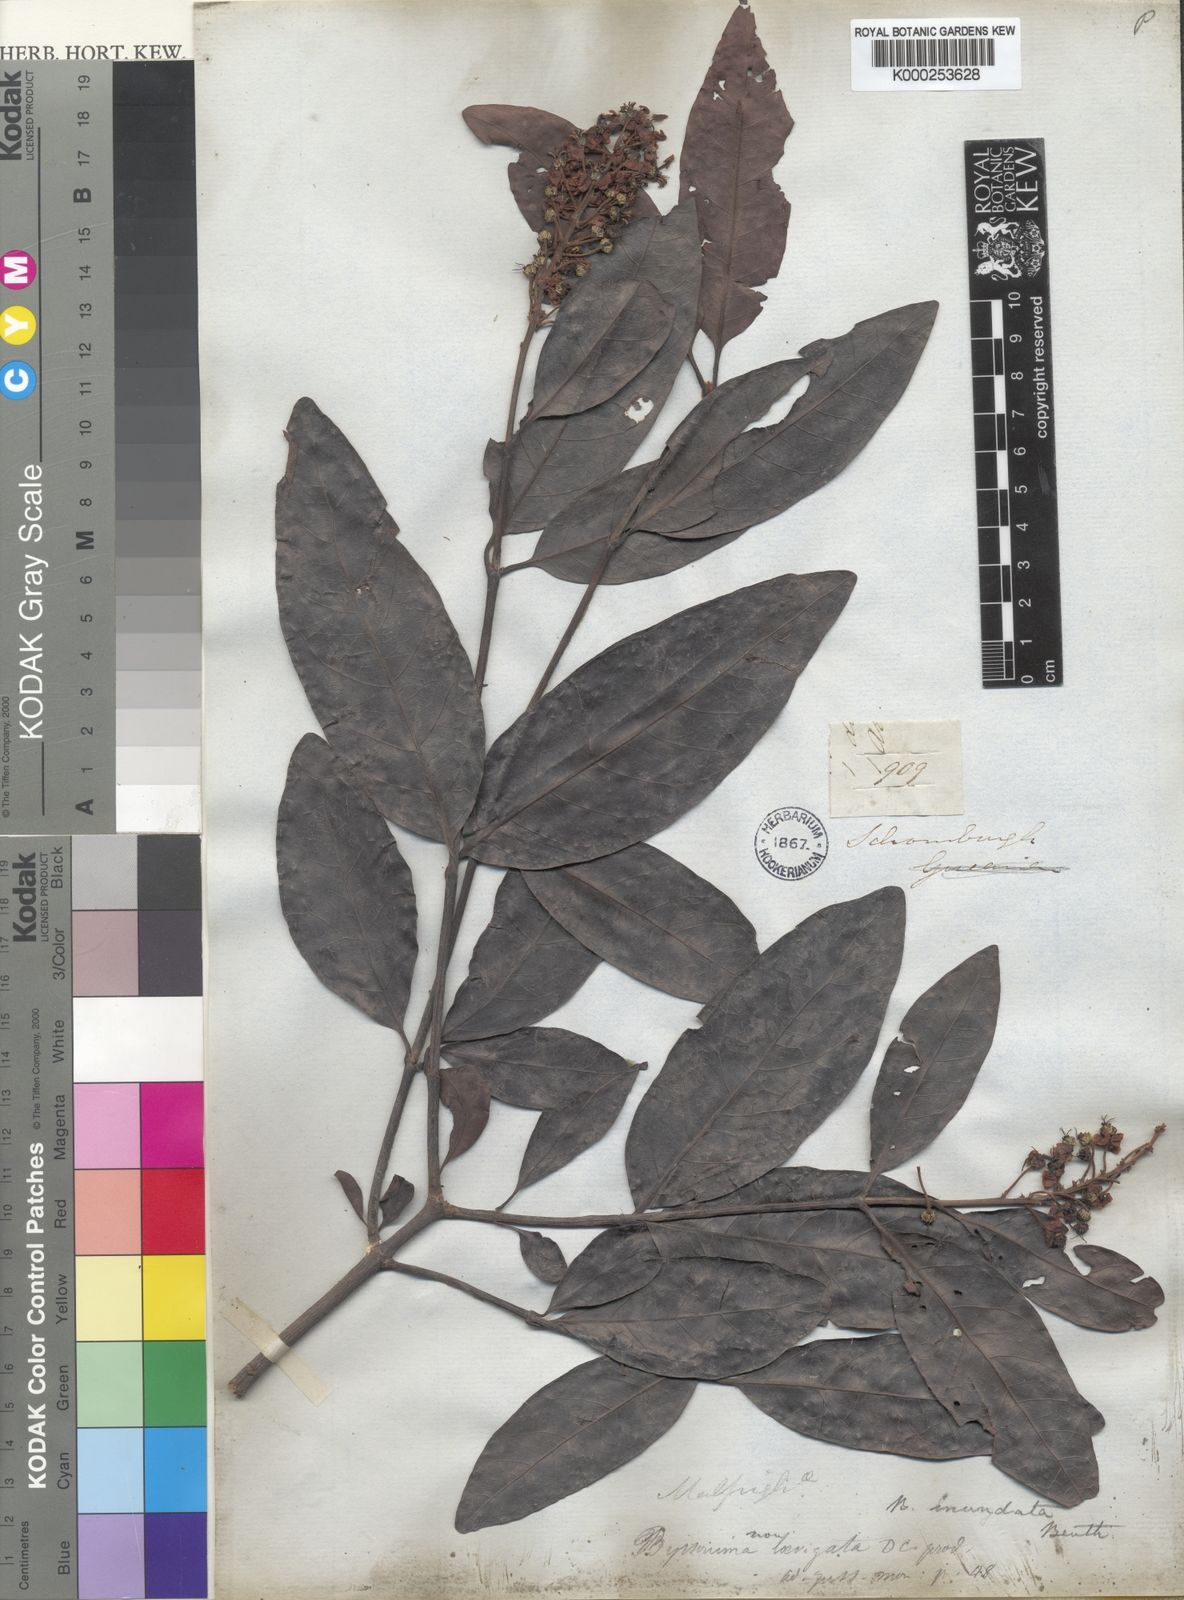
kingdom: Plantae
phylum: Tracheophyta
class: Magnoliopsida
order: Malpighiales
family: Malpighiaceae
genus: Byrsonima
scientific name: Byrsonima japurensis
